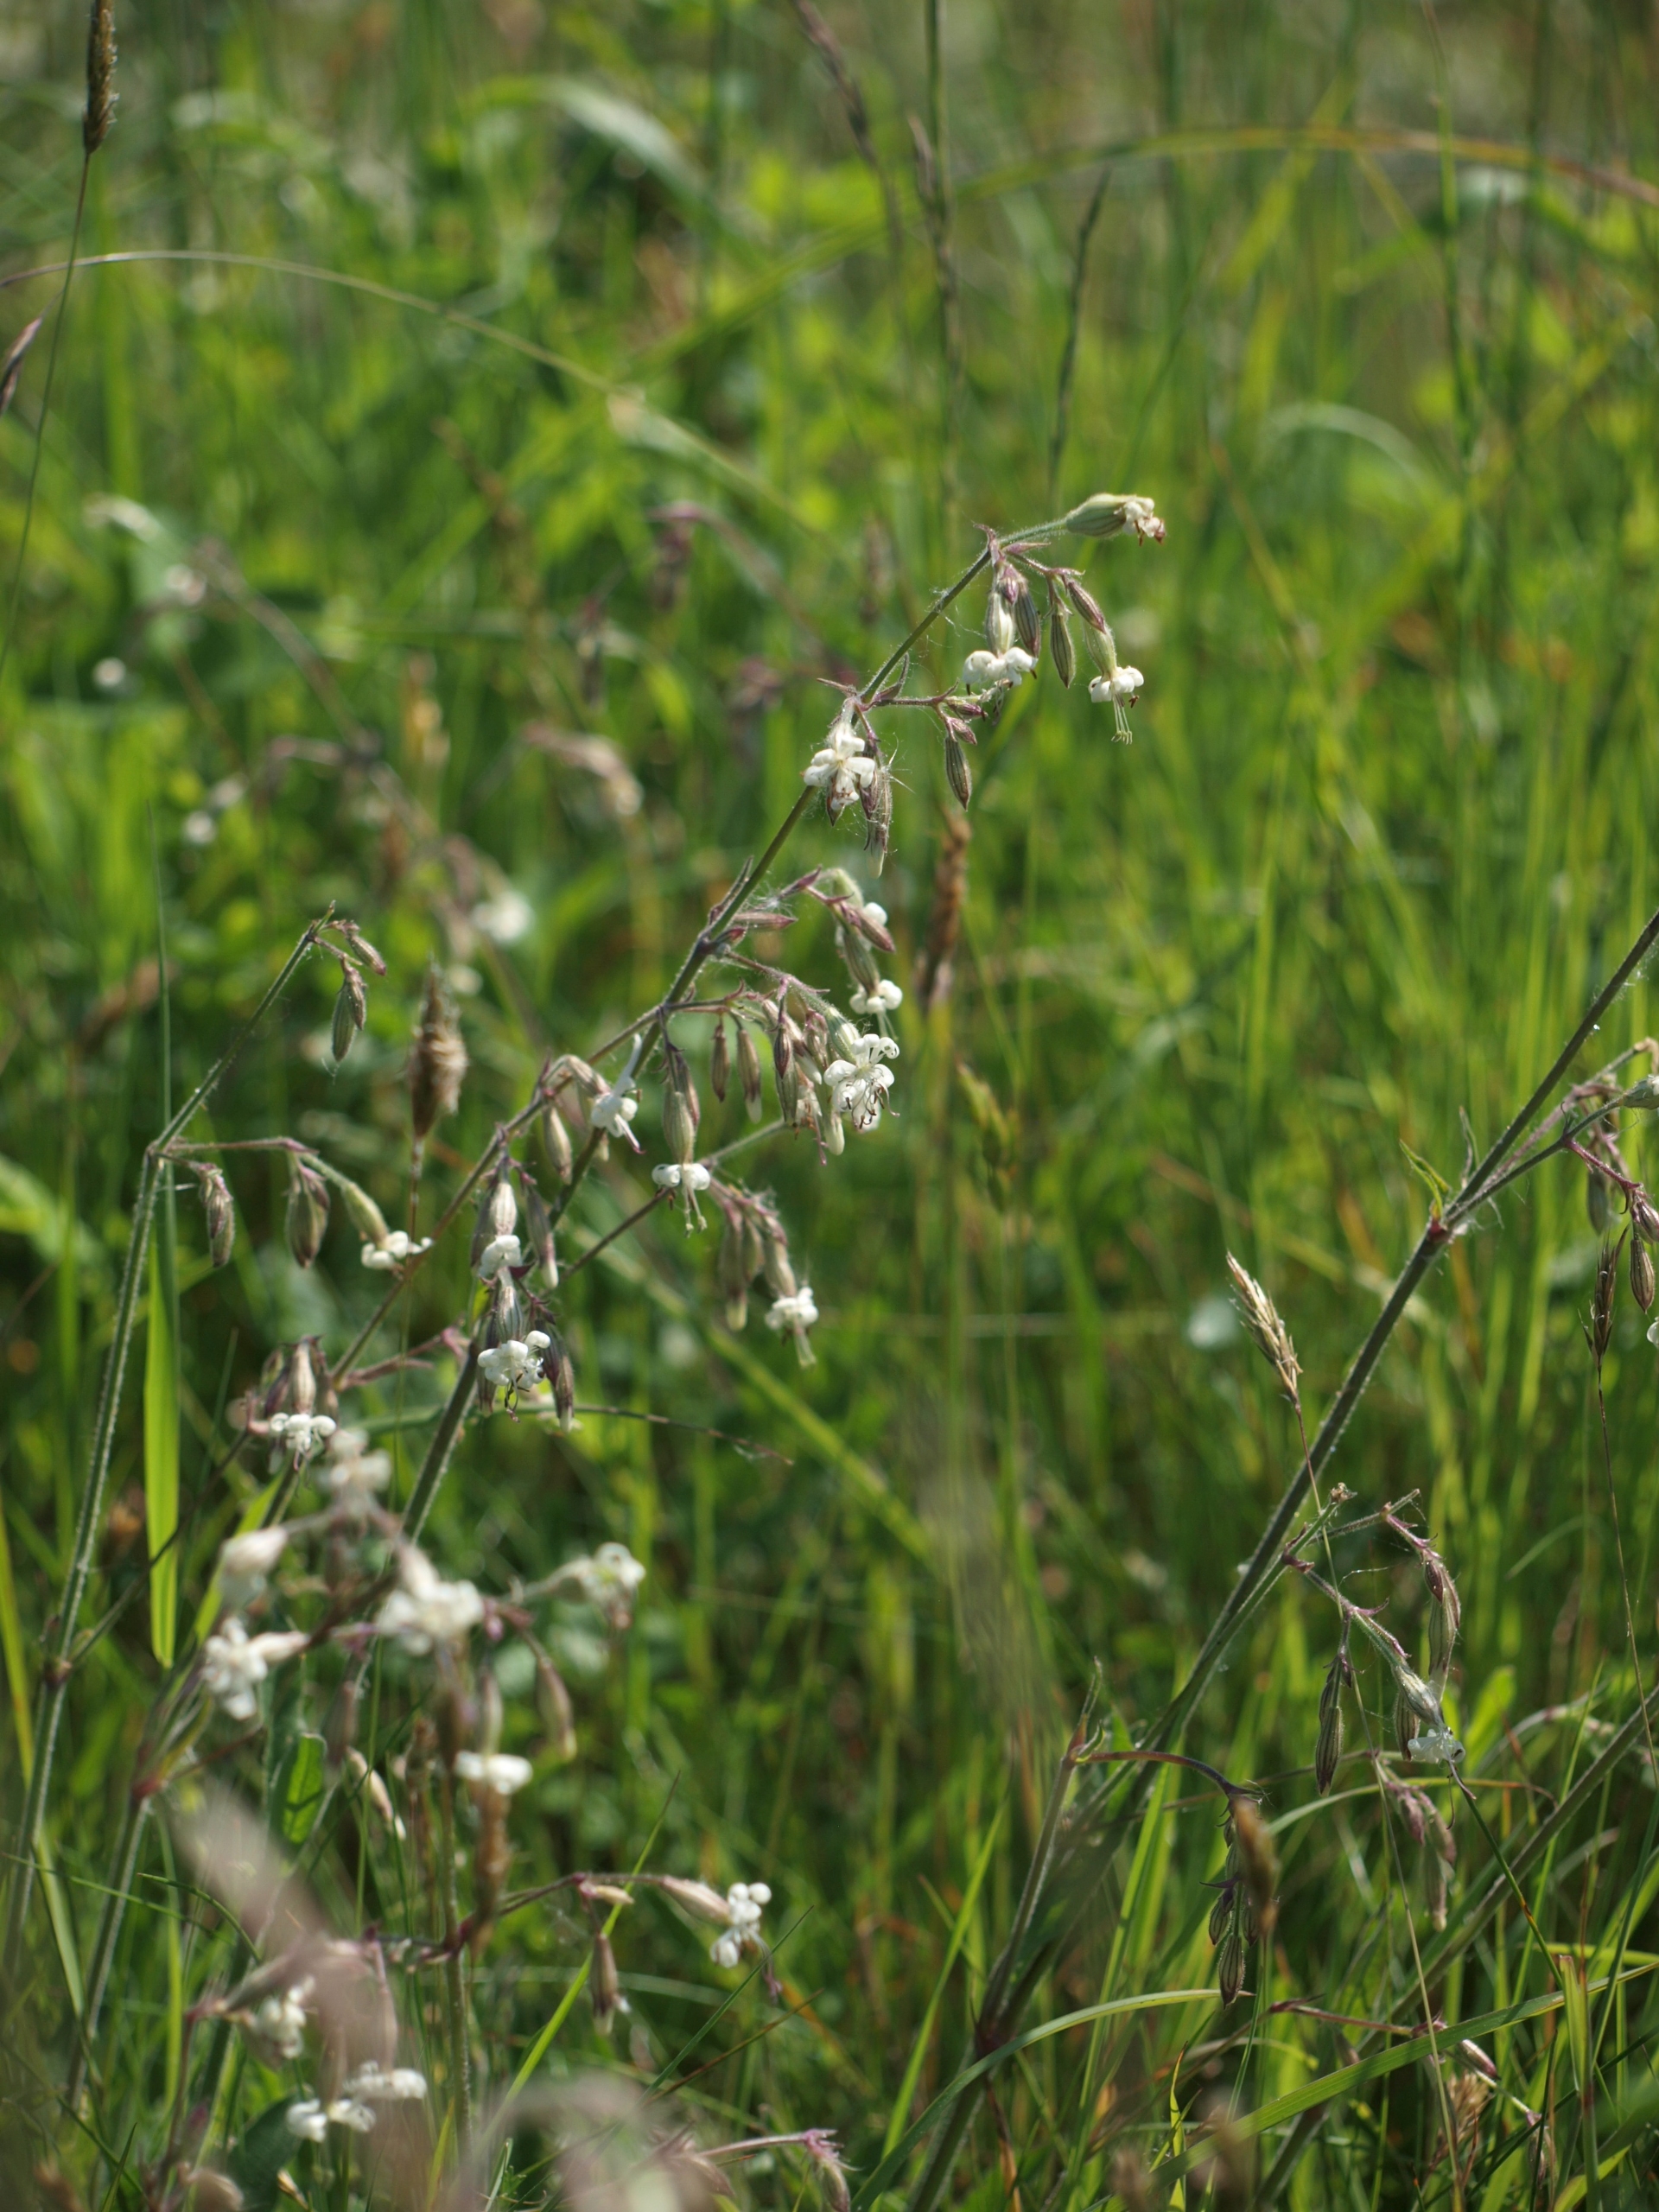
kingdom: Plantae
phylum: Tracheophyta
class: Magnoliopsida
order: Caryophyllales
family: Caryophyllaceae
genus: Silene
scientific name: Silene nutans
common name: Nikkende limurt
